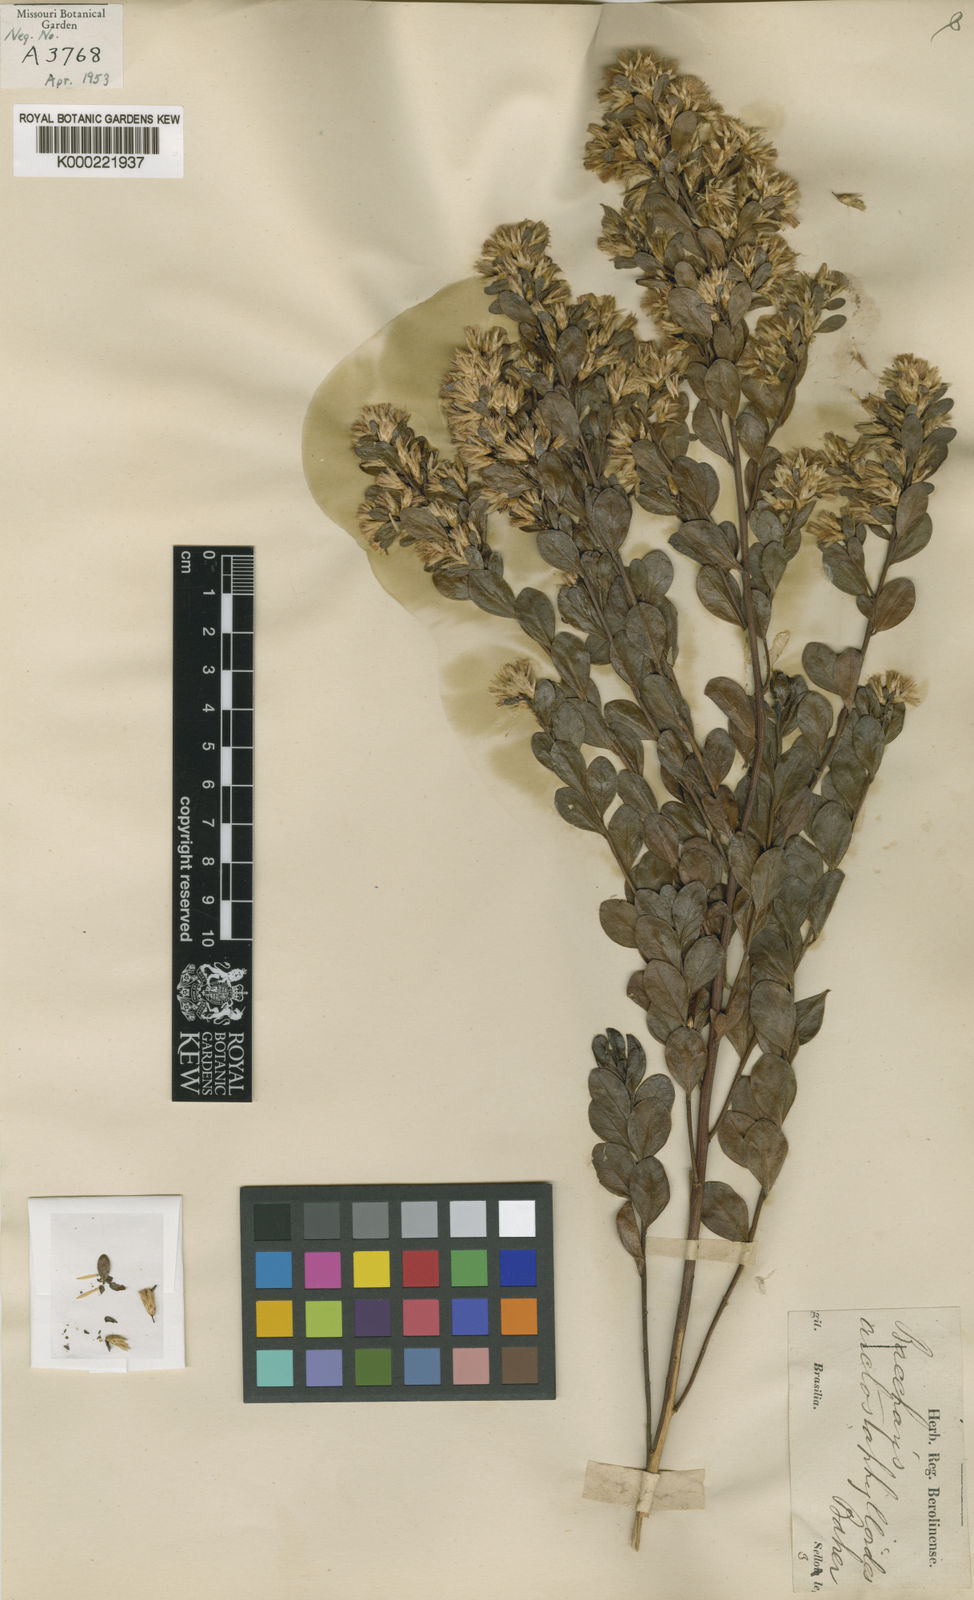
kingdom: Plantae
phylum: Tracheophyta
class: Magnoliopsida
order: Asterales
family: Asteraceae
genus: Baccharis
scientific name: Baccharis reticularia
